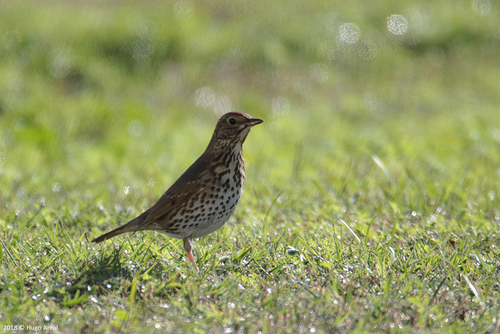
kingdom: Animalia
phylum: Chordata
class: Aves
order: Passeriformes
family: Turdidae
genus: Turdus
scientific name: Turdus philomelos
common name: Song thrush
